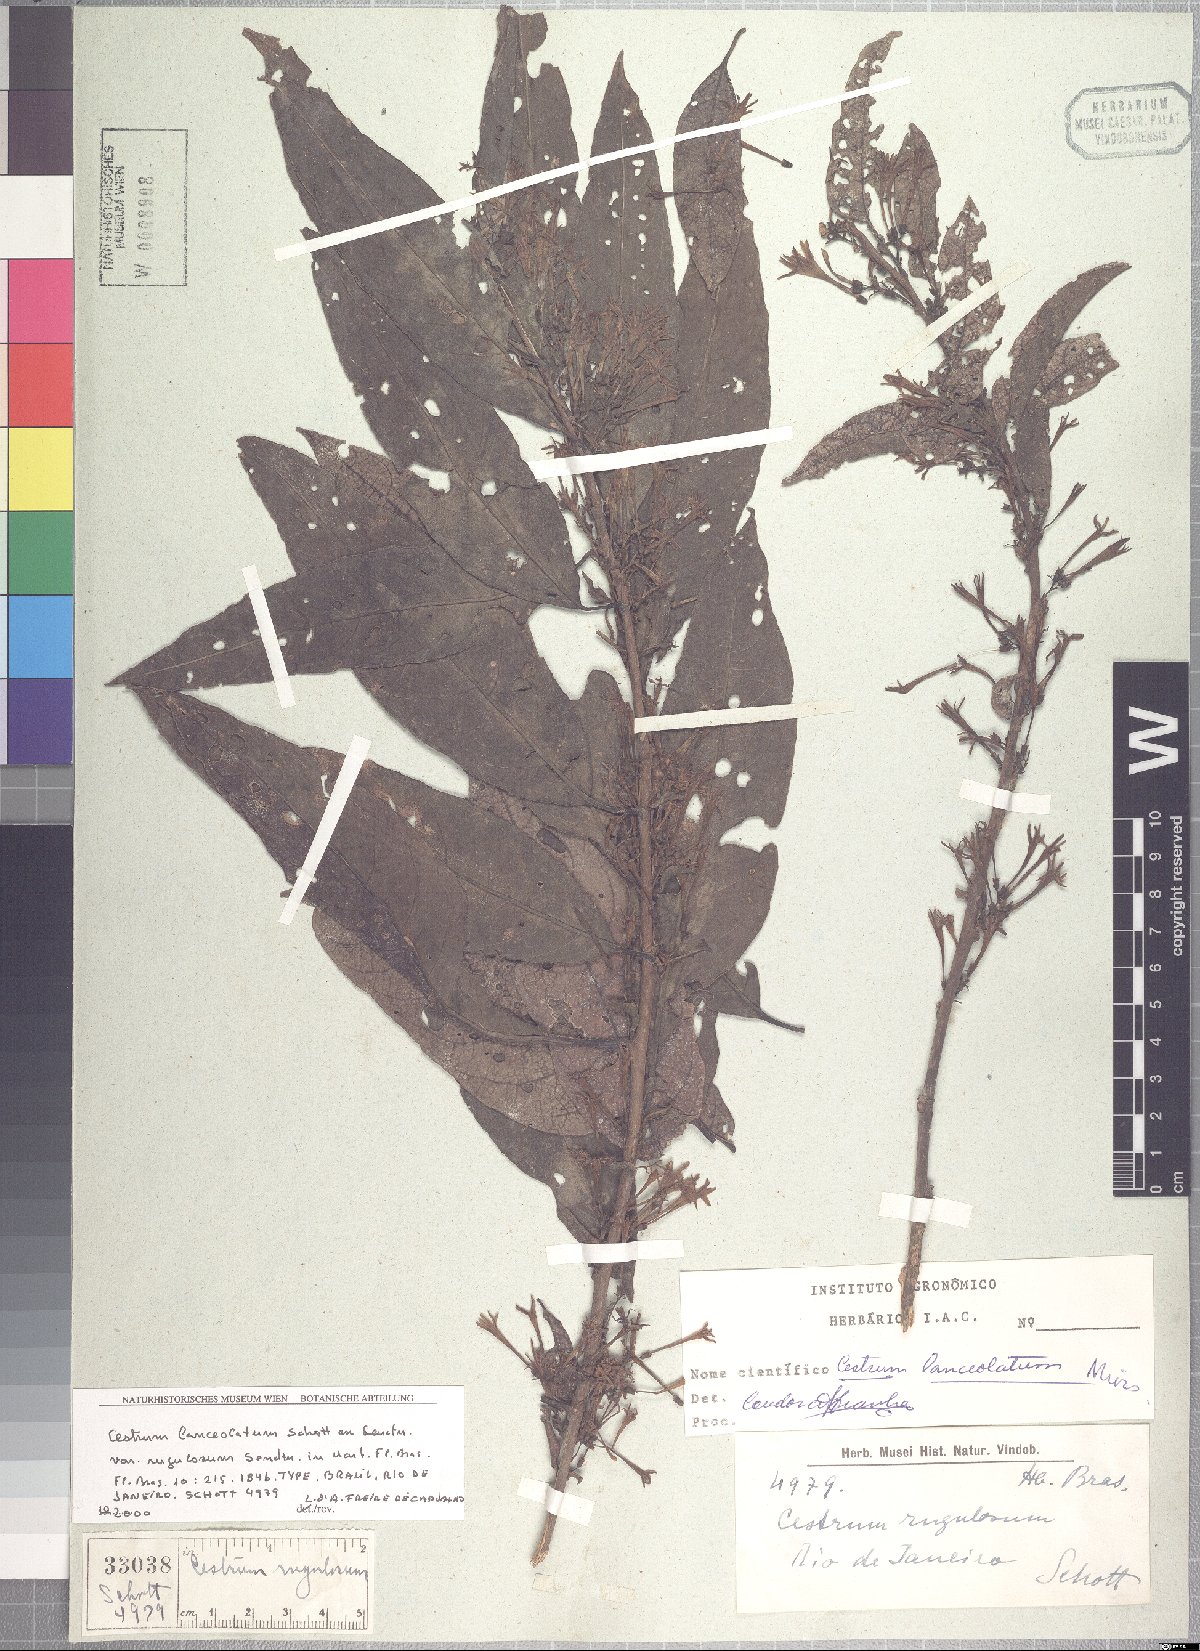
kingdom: Plantae
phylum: Tracheophyta
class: Magnoliopsida
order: Solanales
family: Solanaceae
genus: Cestrum
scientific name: Cestrum bracteatum
